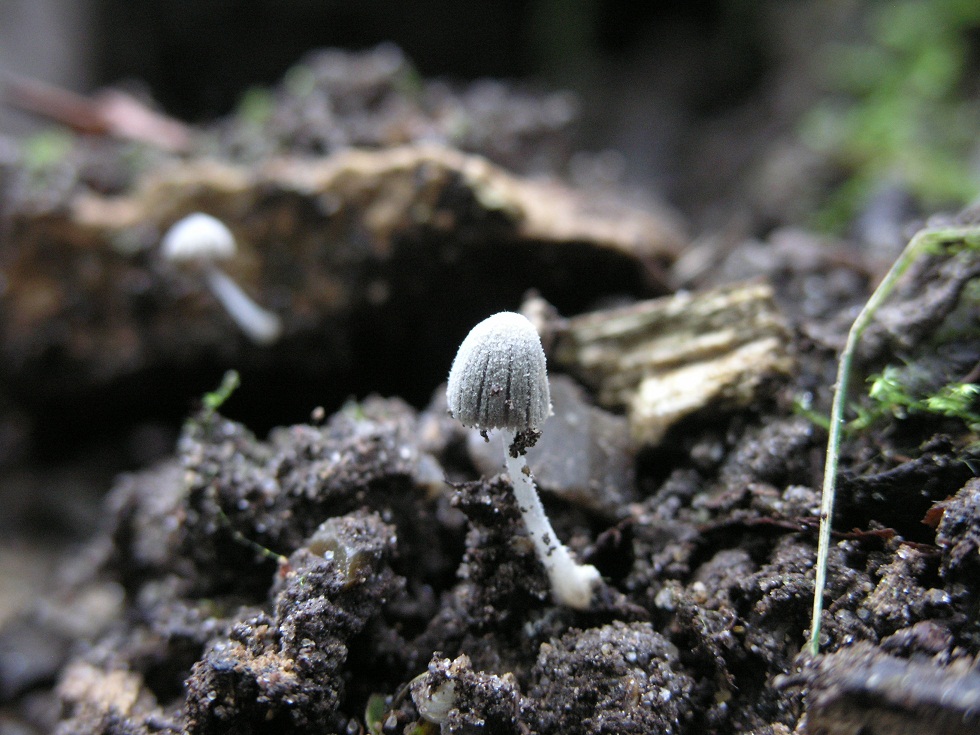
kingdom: Fungi
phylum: Basidiomycota
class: Agaricomycetes
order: Agaricales
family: Psathyrellaceae
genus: Coprinopsis
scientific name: Coprinopsis cortinata
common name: slør-blækhat
